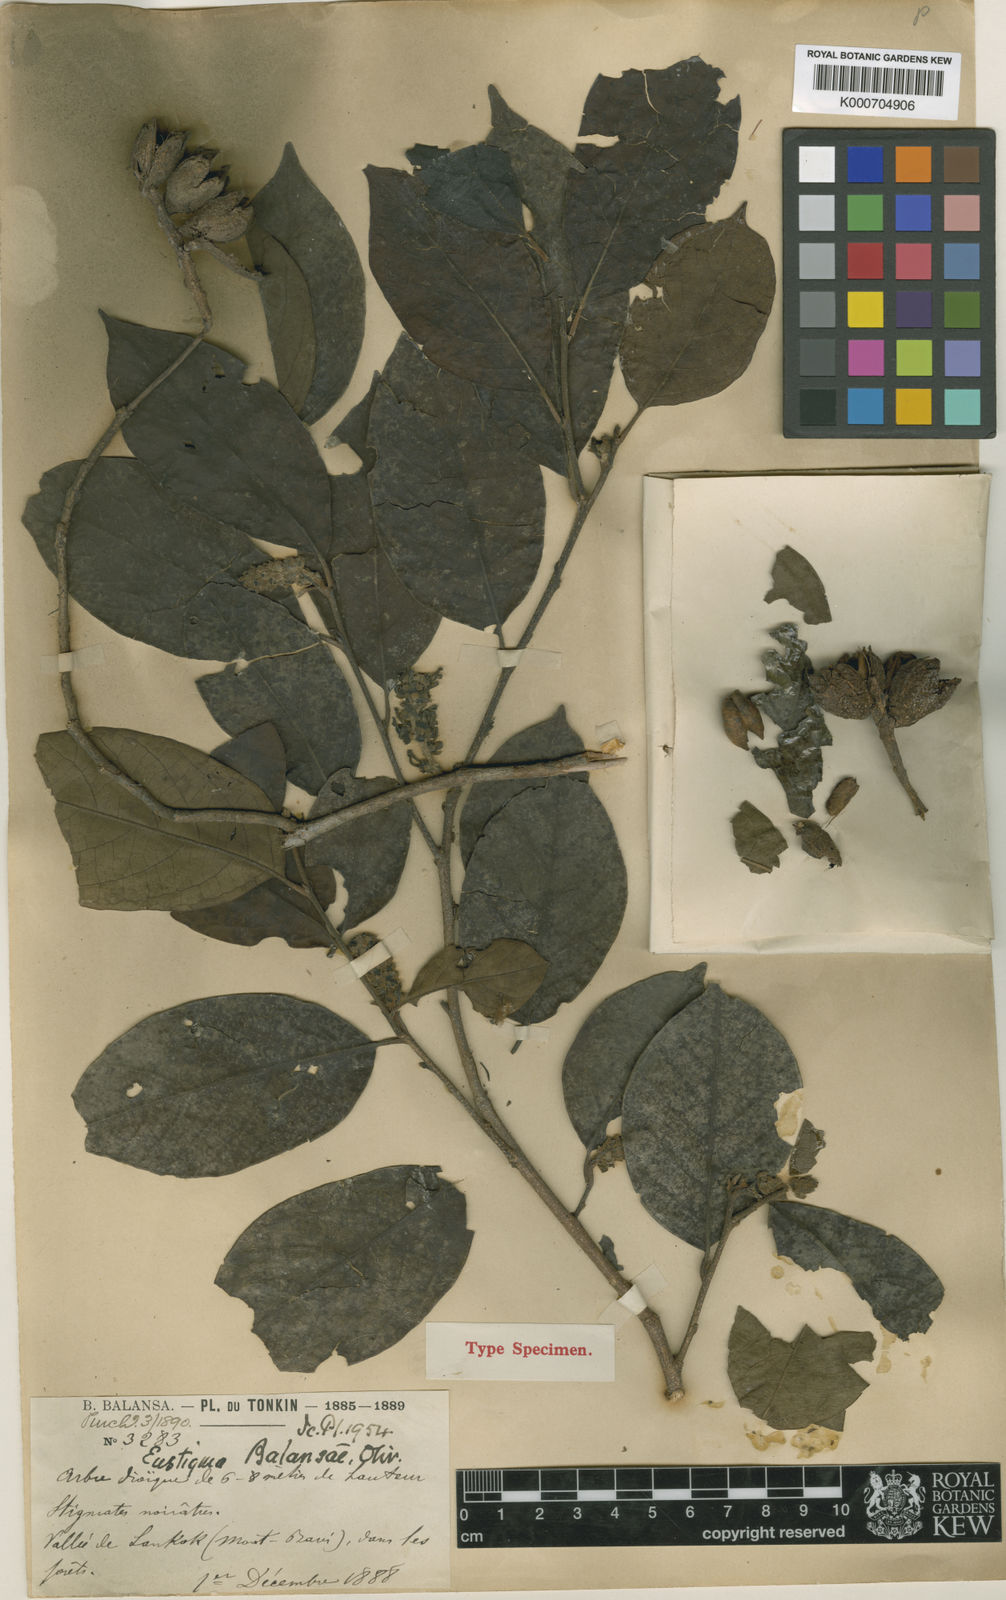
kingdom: Plantae
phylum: Tracheophyta
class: Magnoliopsida
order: Saxifragales
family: Hamamelidaceae
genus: Eustigma
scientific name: Eustigma balansae
